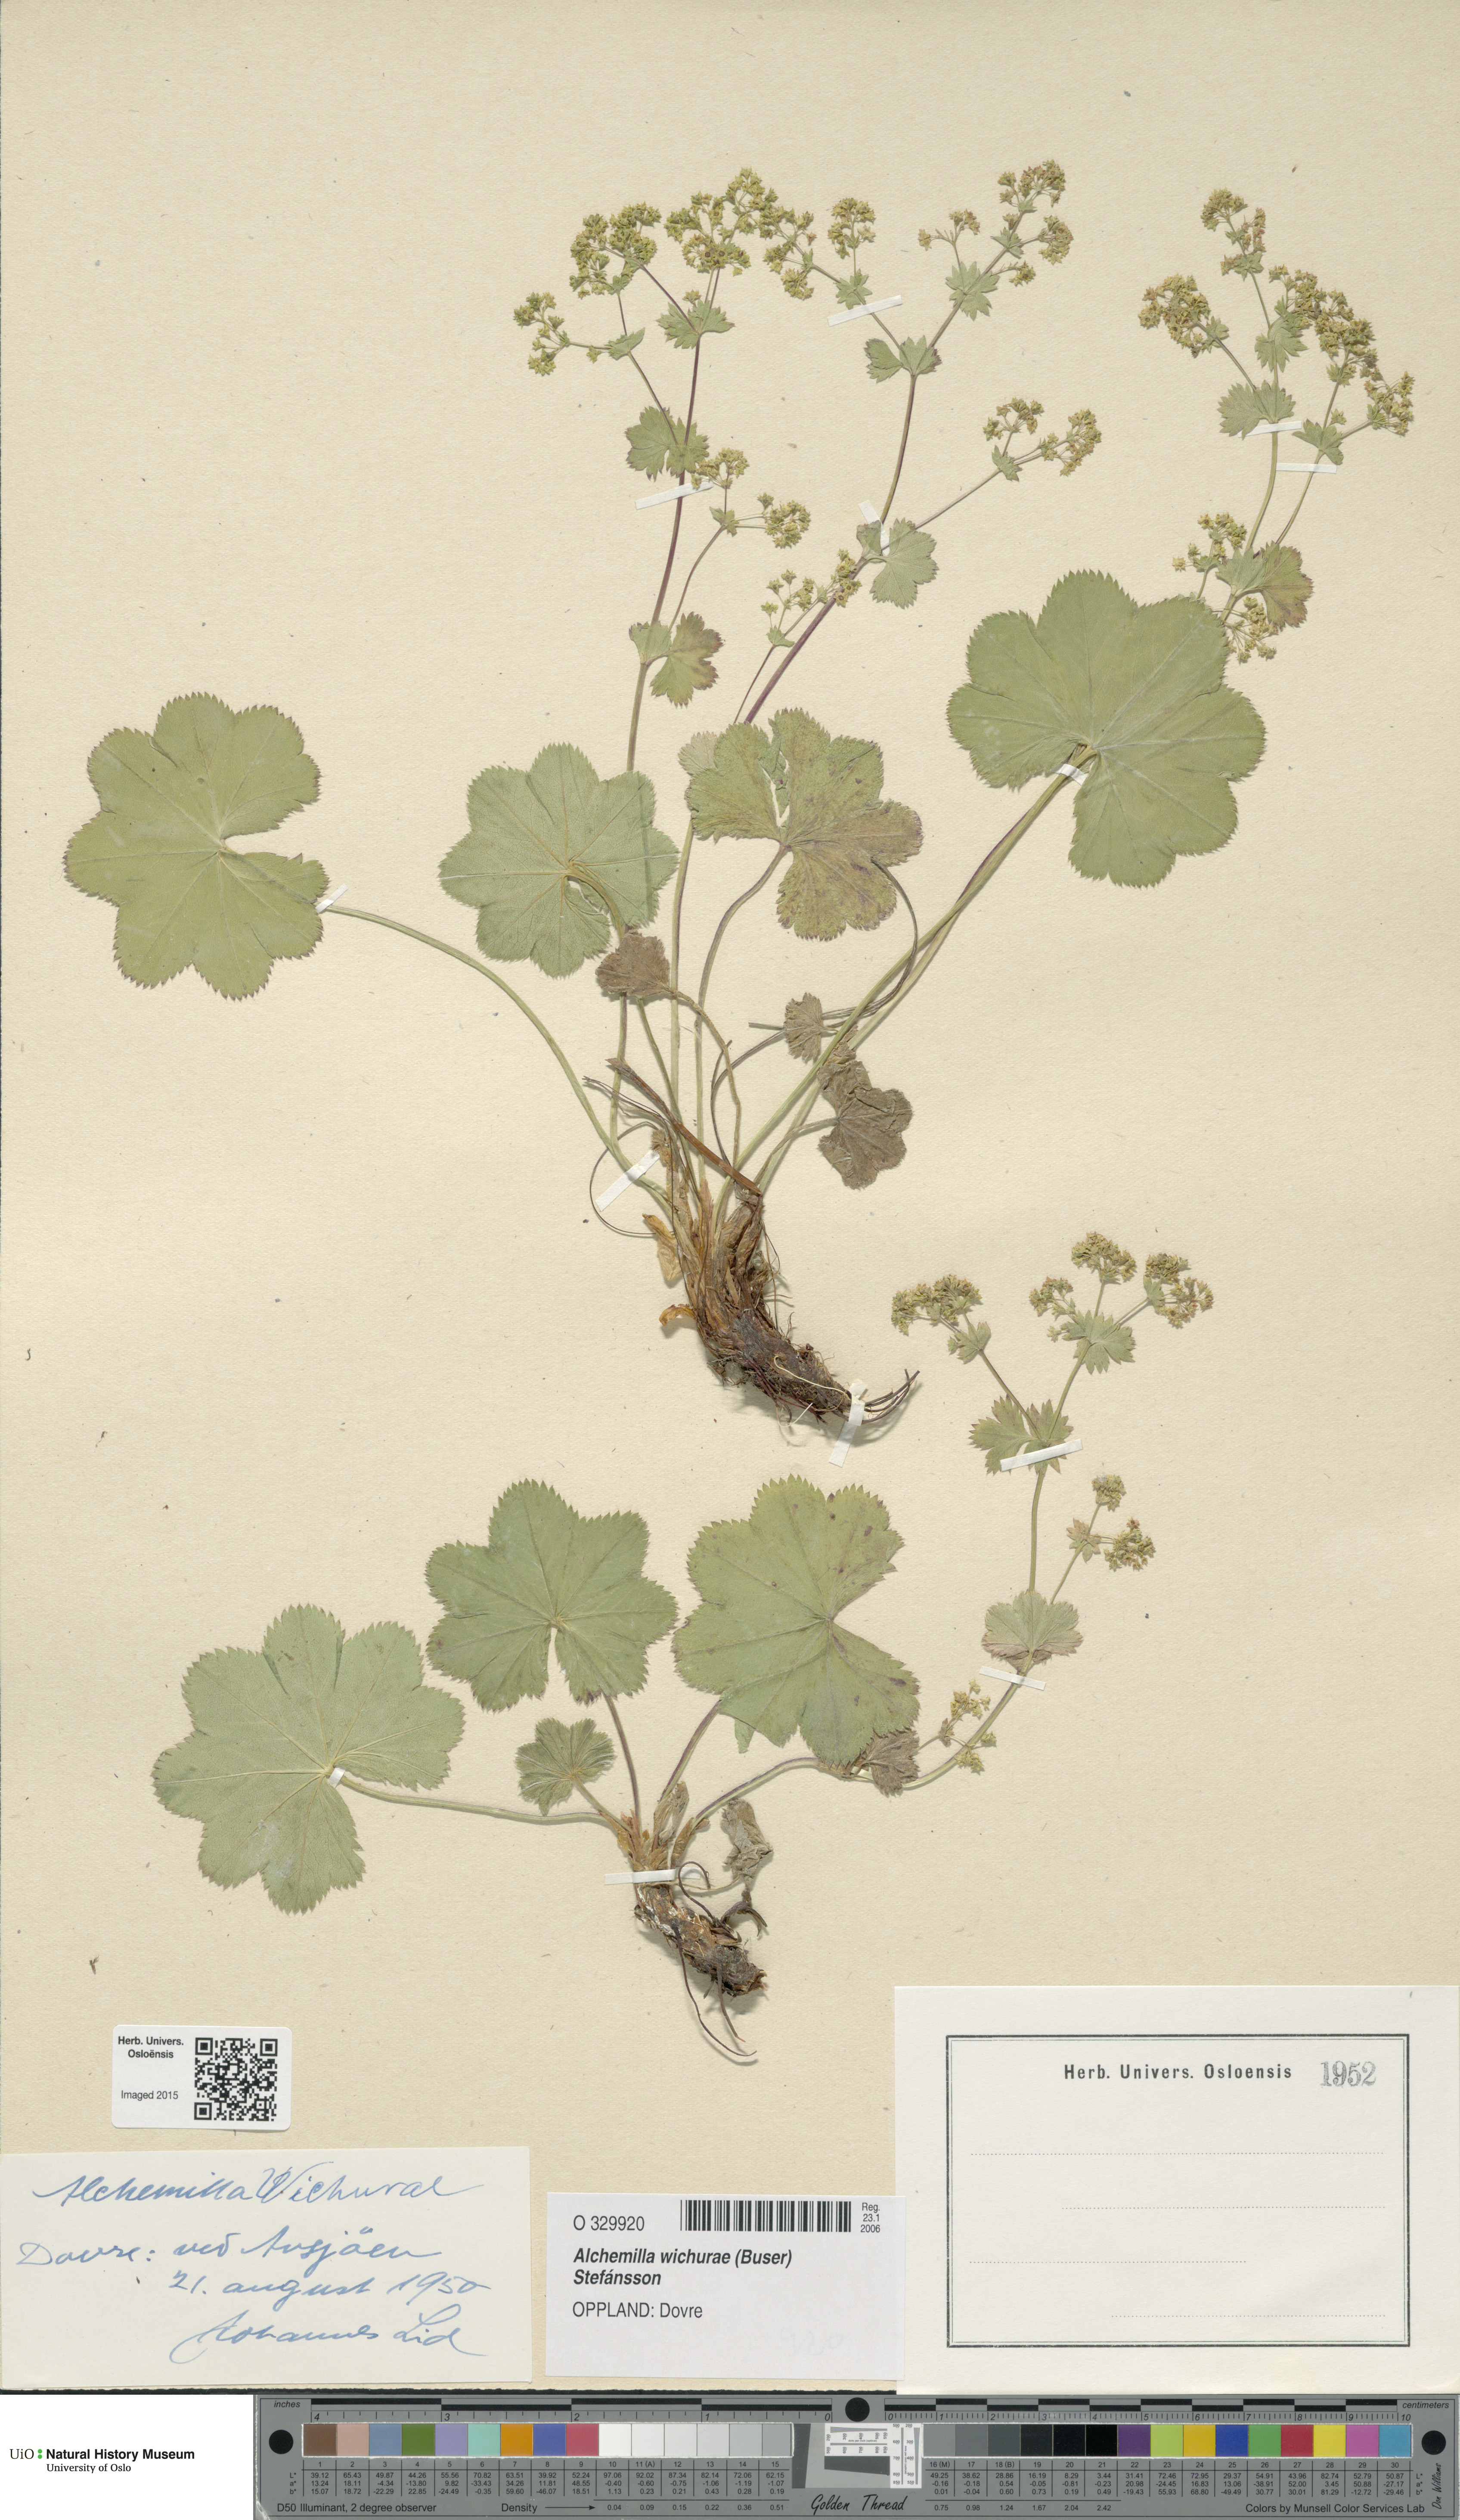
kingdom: Plantae
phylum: Tracheophyta
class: Magnoliopsida
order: Rosales
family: Rosaceae
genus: Alchemilla
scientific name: Alchemilla wichurae
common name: Rock lady's mantle
